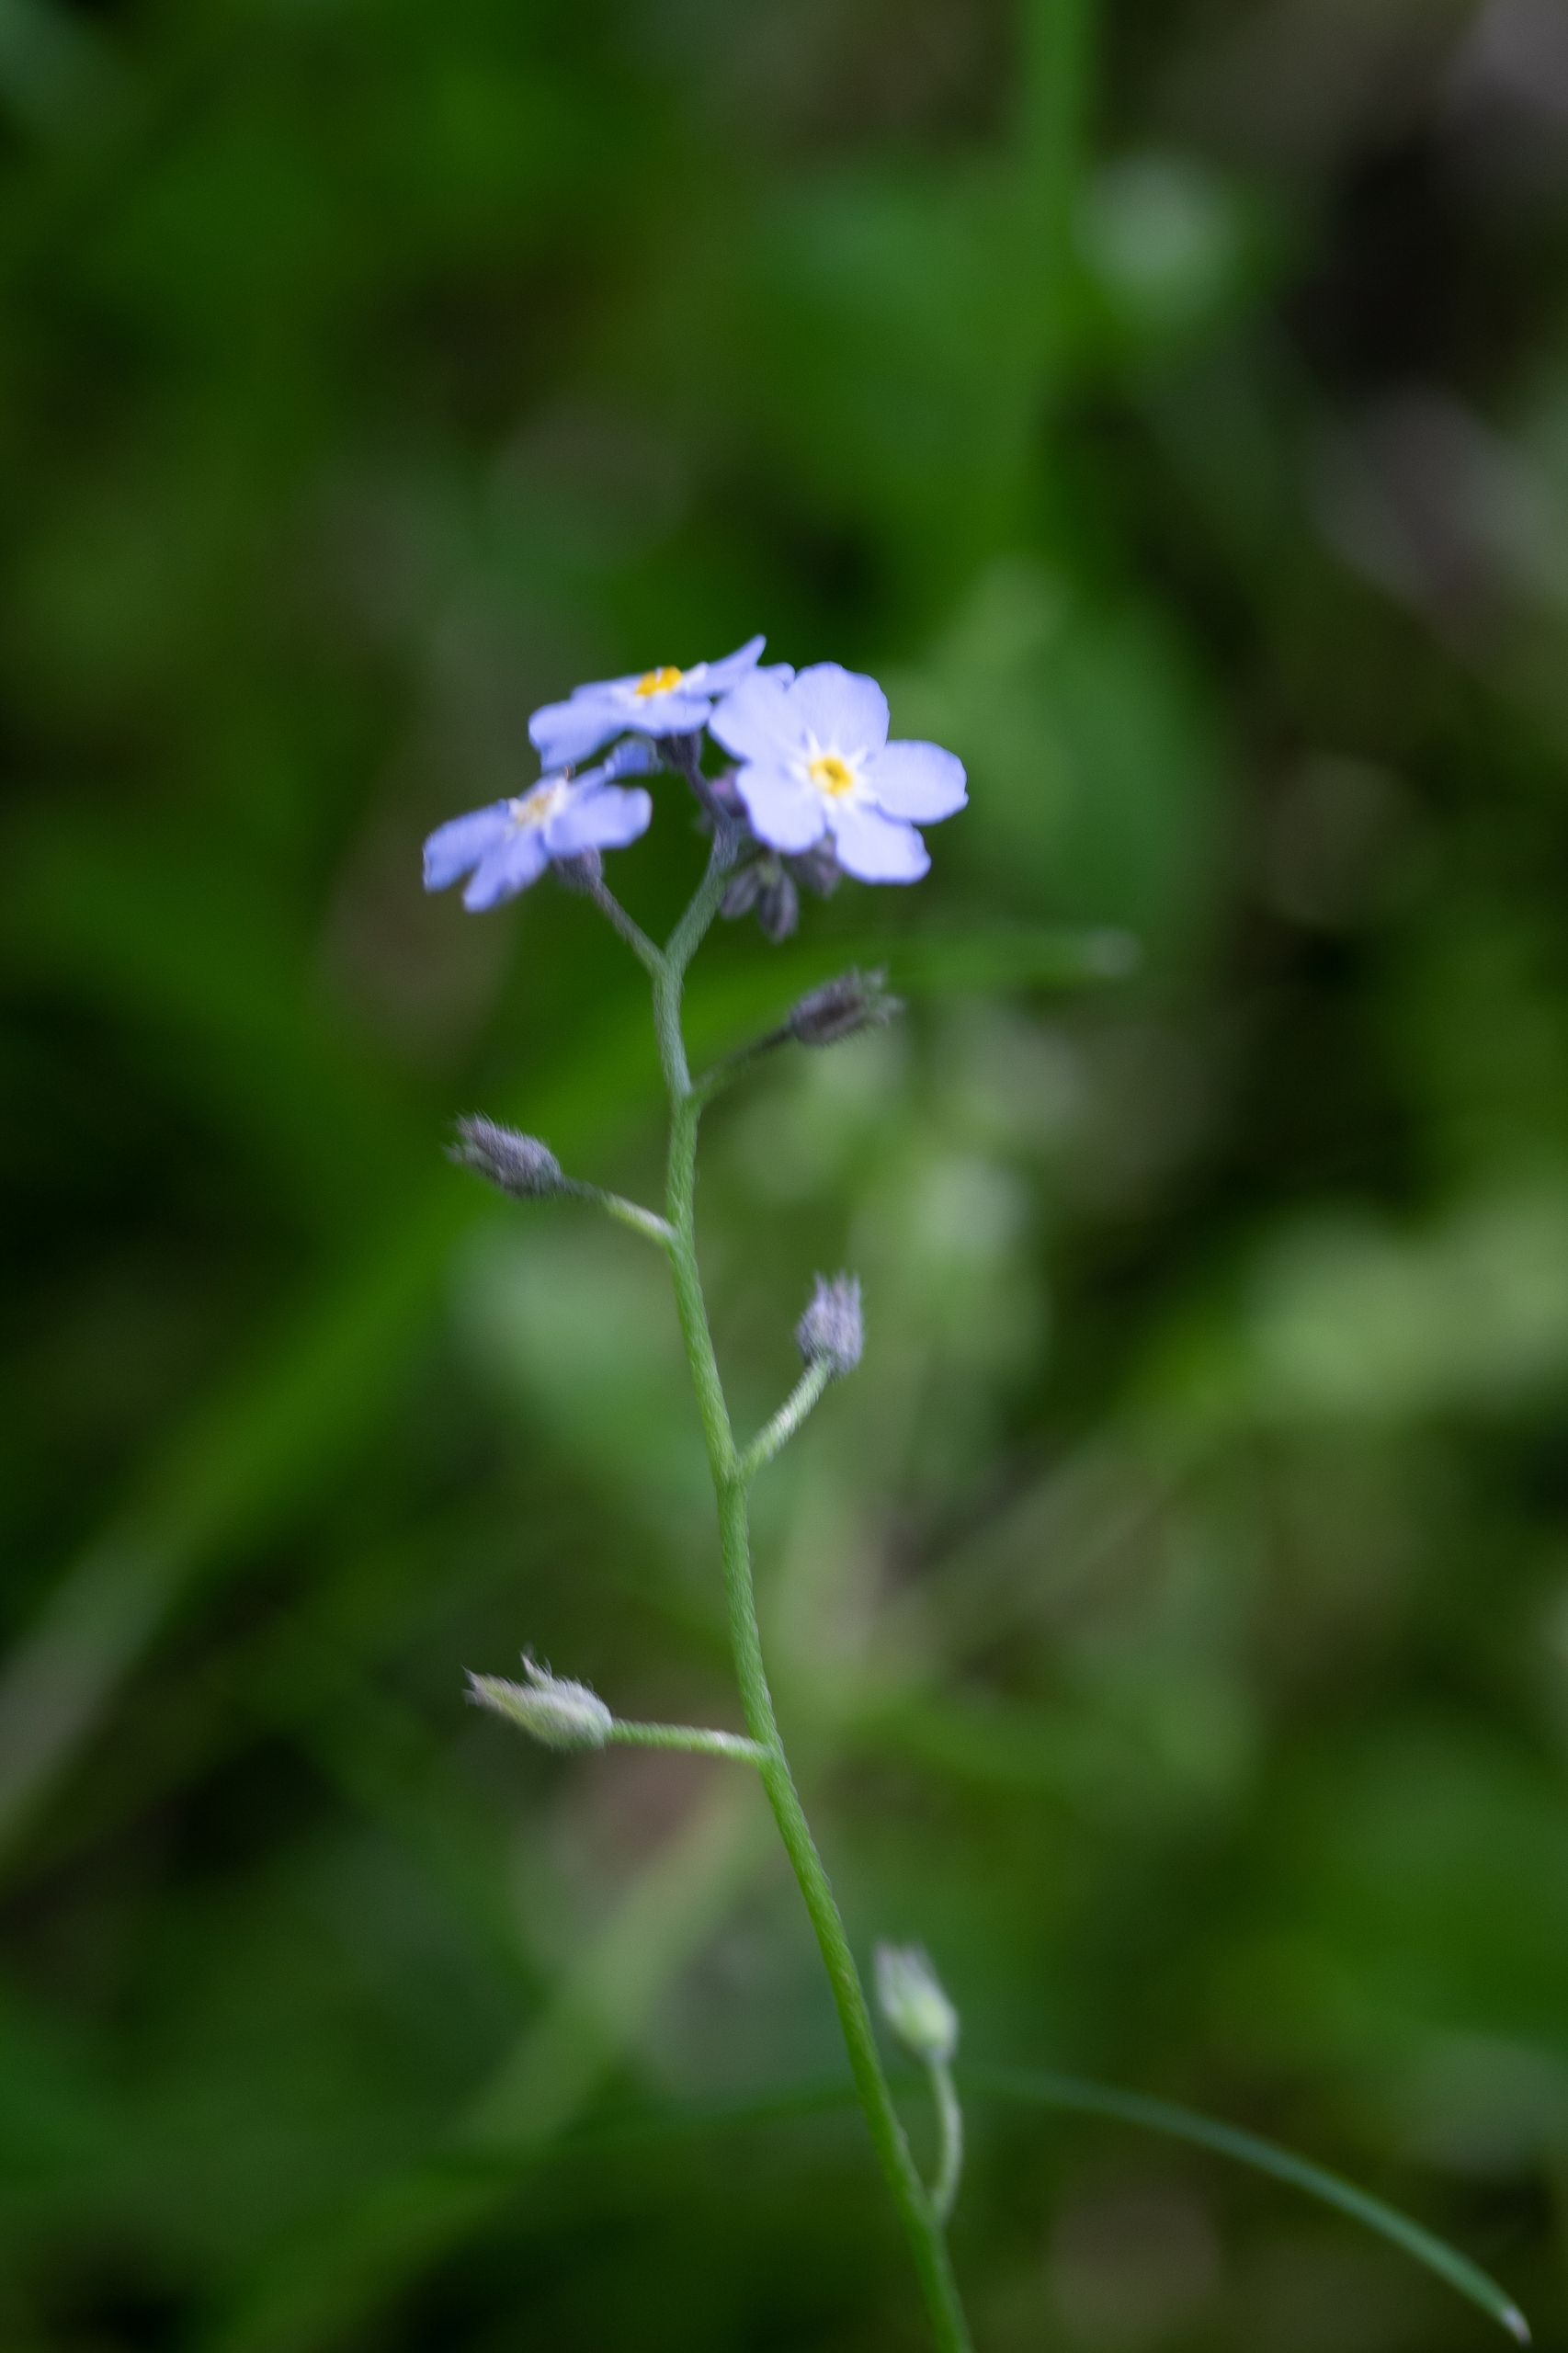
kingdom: Plantae
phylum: Tracheophyta
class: Magnoliopsida
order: Boraginales
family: Boraginaceae
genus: Myosotis
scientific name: Myosotis sylvatica
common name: Skov-forglemmigej
